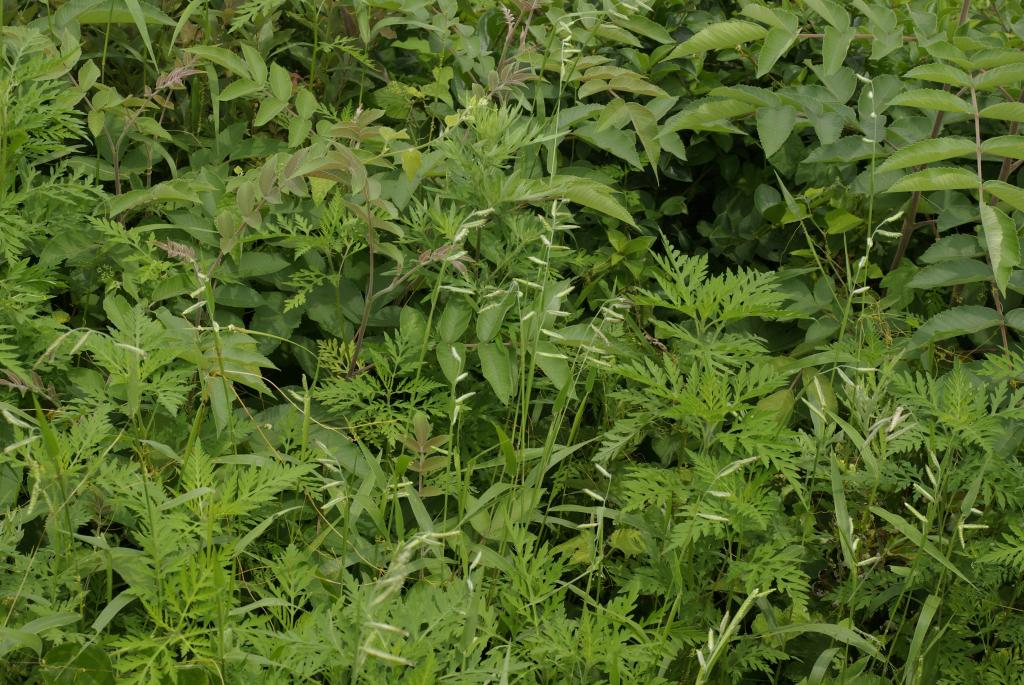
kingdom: Plantae
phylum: Tracheophyta
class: Liliopsida
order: Poales
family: Poaceae
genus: Eriochloa
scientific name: Eriochloa villosa
